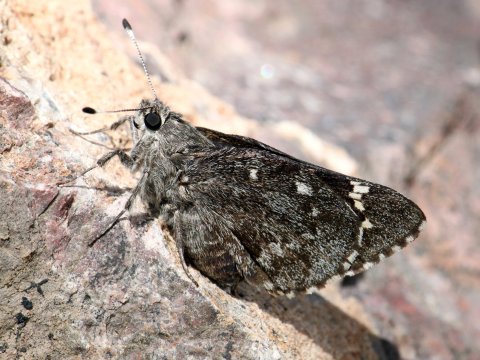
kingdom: Animalia
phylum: Arthropoda
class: Insecta
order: Lepidoptera
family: Hesperiidae
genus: Agathymus
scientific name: Agathymus evansi
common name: Huachuca Giant-Skipper
